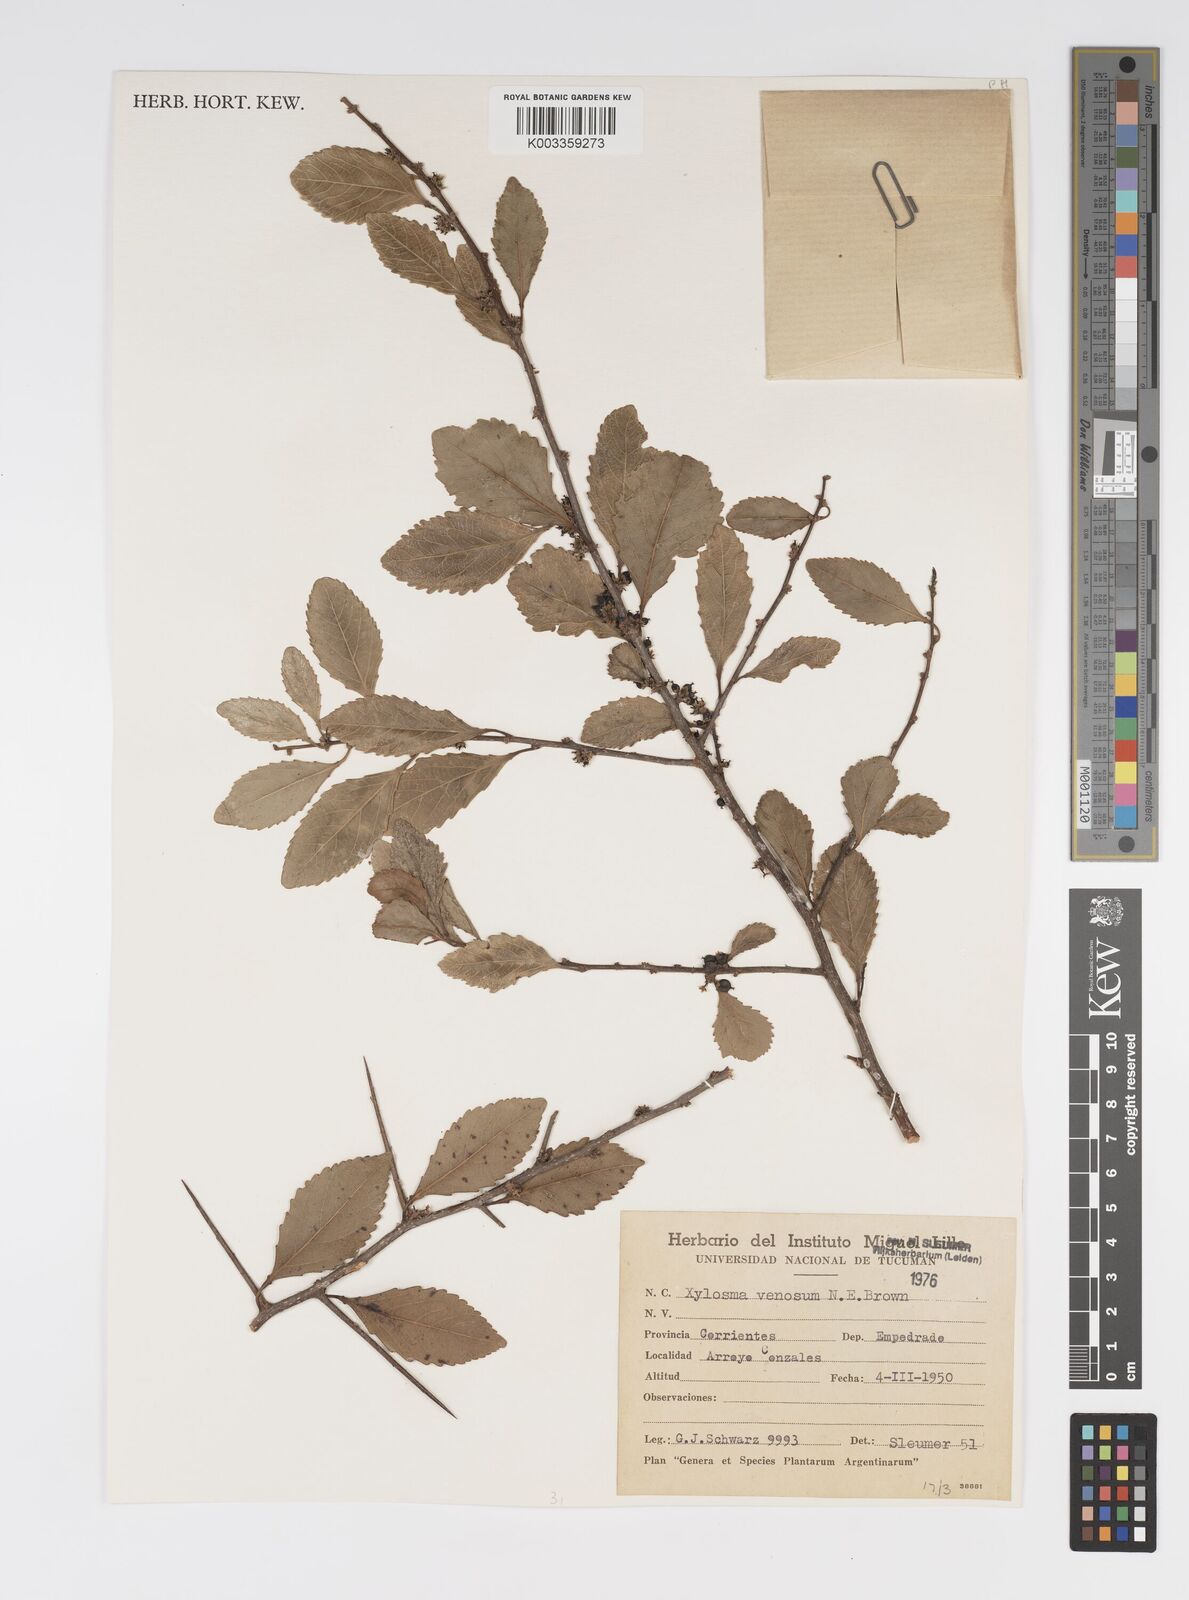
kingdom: Plantae
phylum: Tracheophyta
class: Magnoliopsida
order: Malpighiales
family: Salicaceae
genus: Xylosma
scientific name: Xylosma venosa
